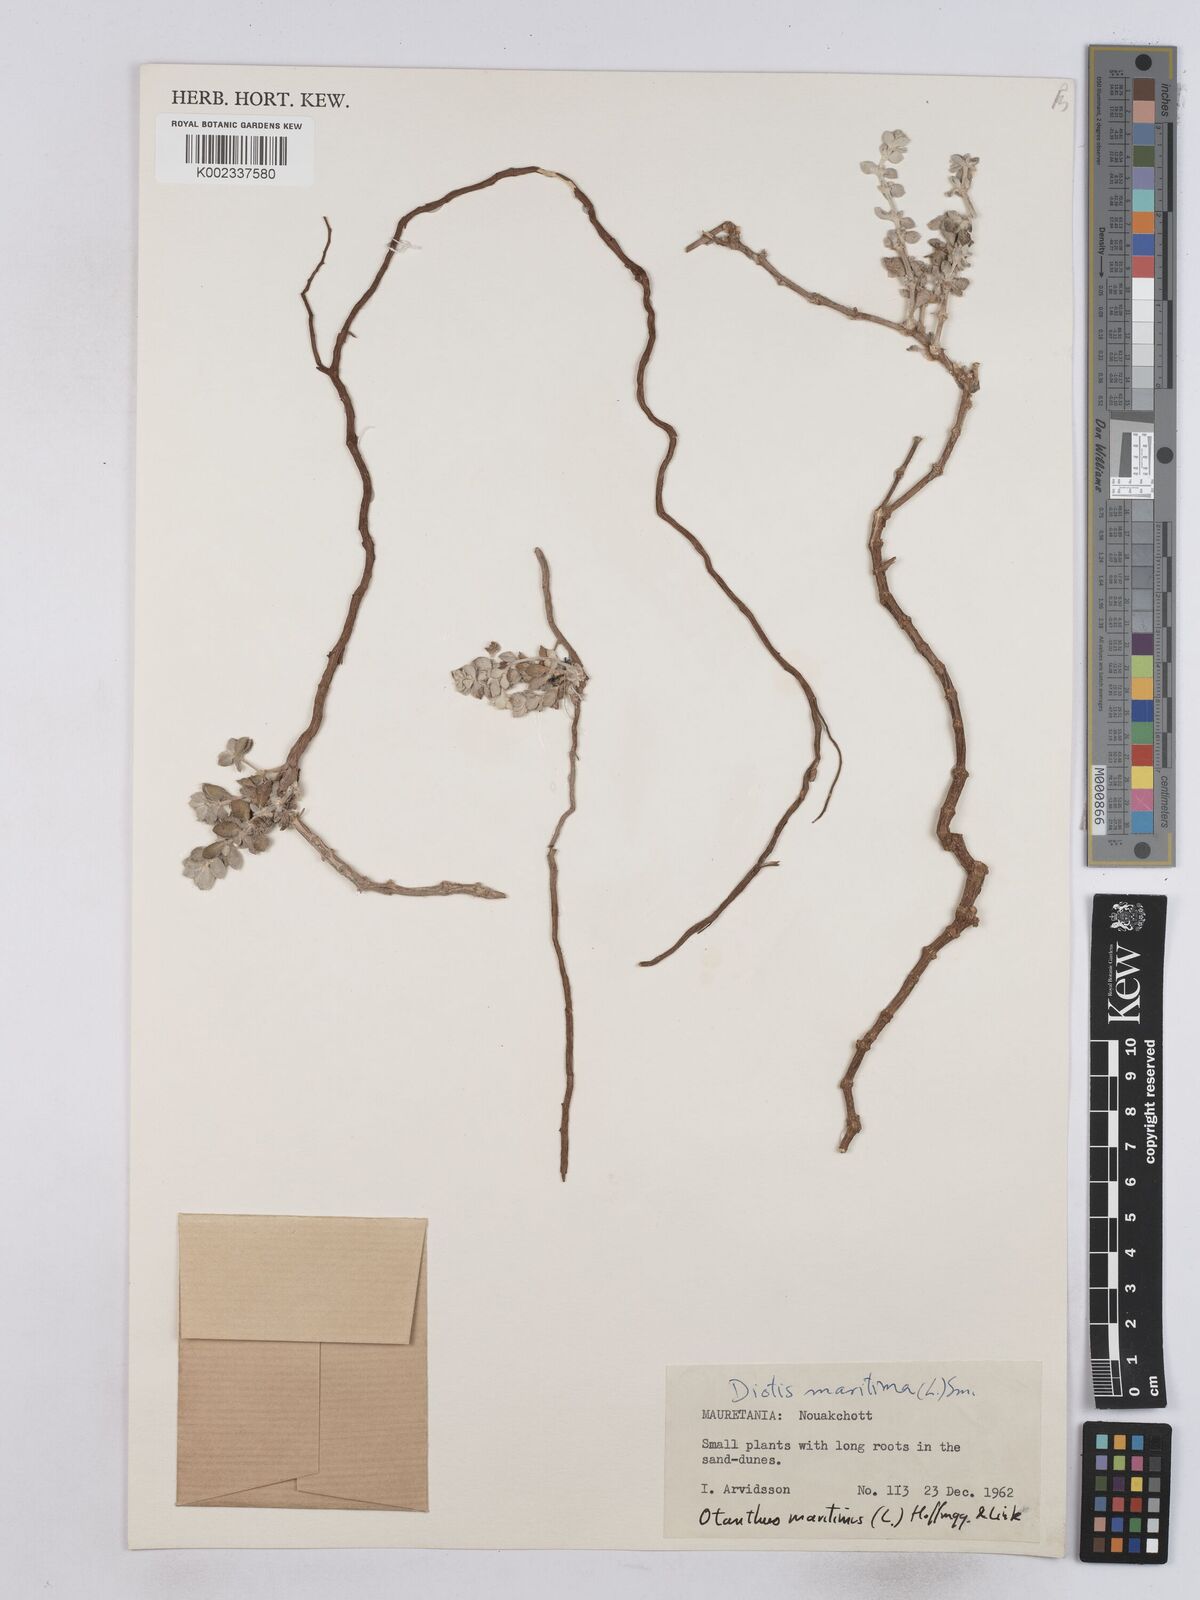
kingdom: Plantae
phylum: Tracheophyta
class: Magnoliopsida
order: Asterales
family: Asteraceae
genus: Achillea
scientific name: Achillea maritima
